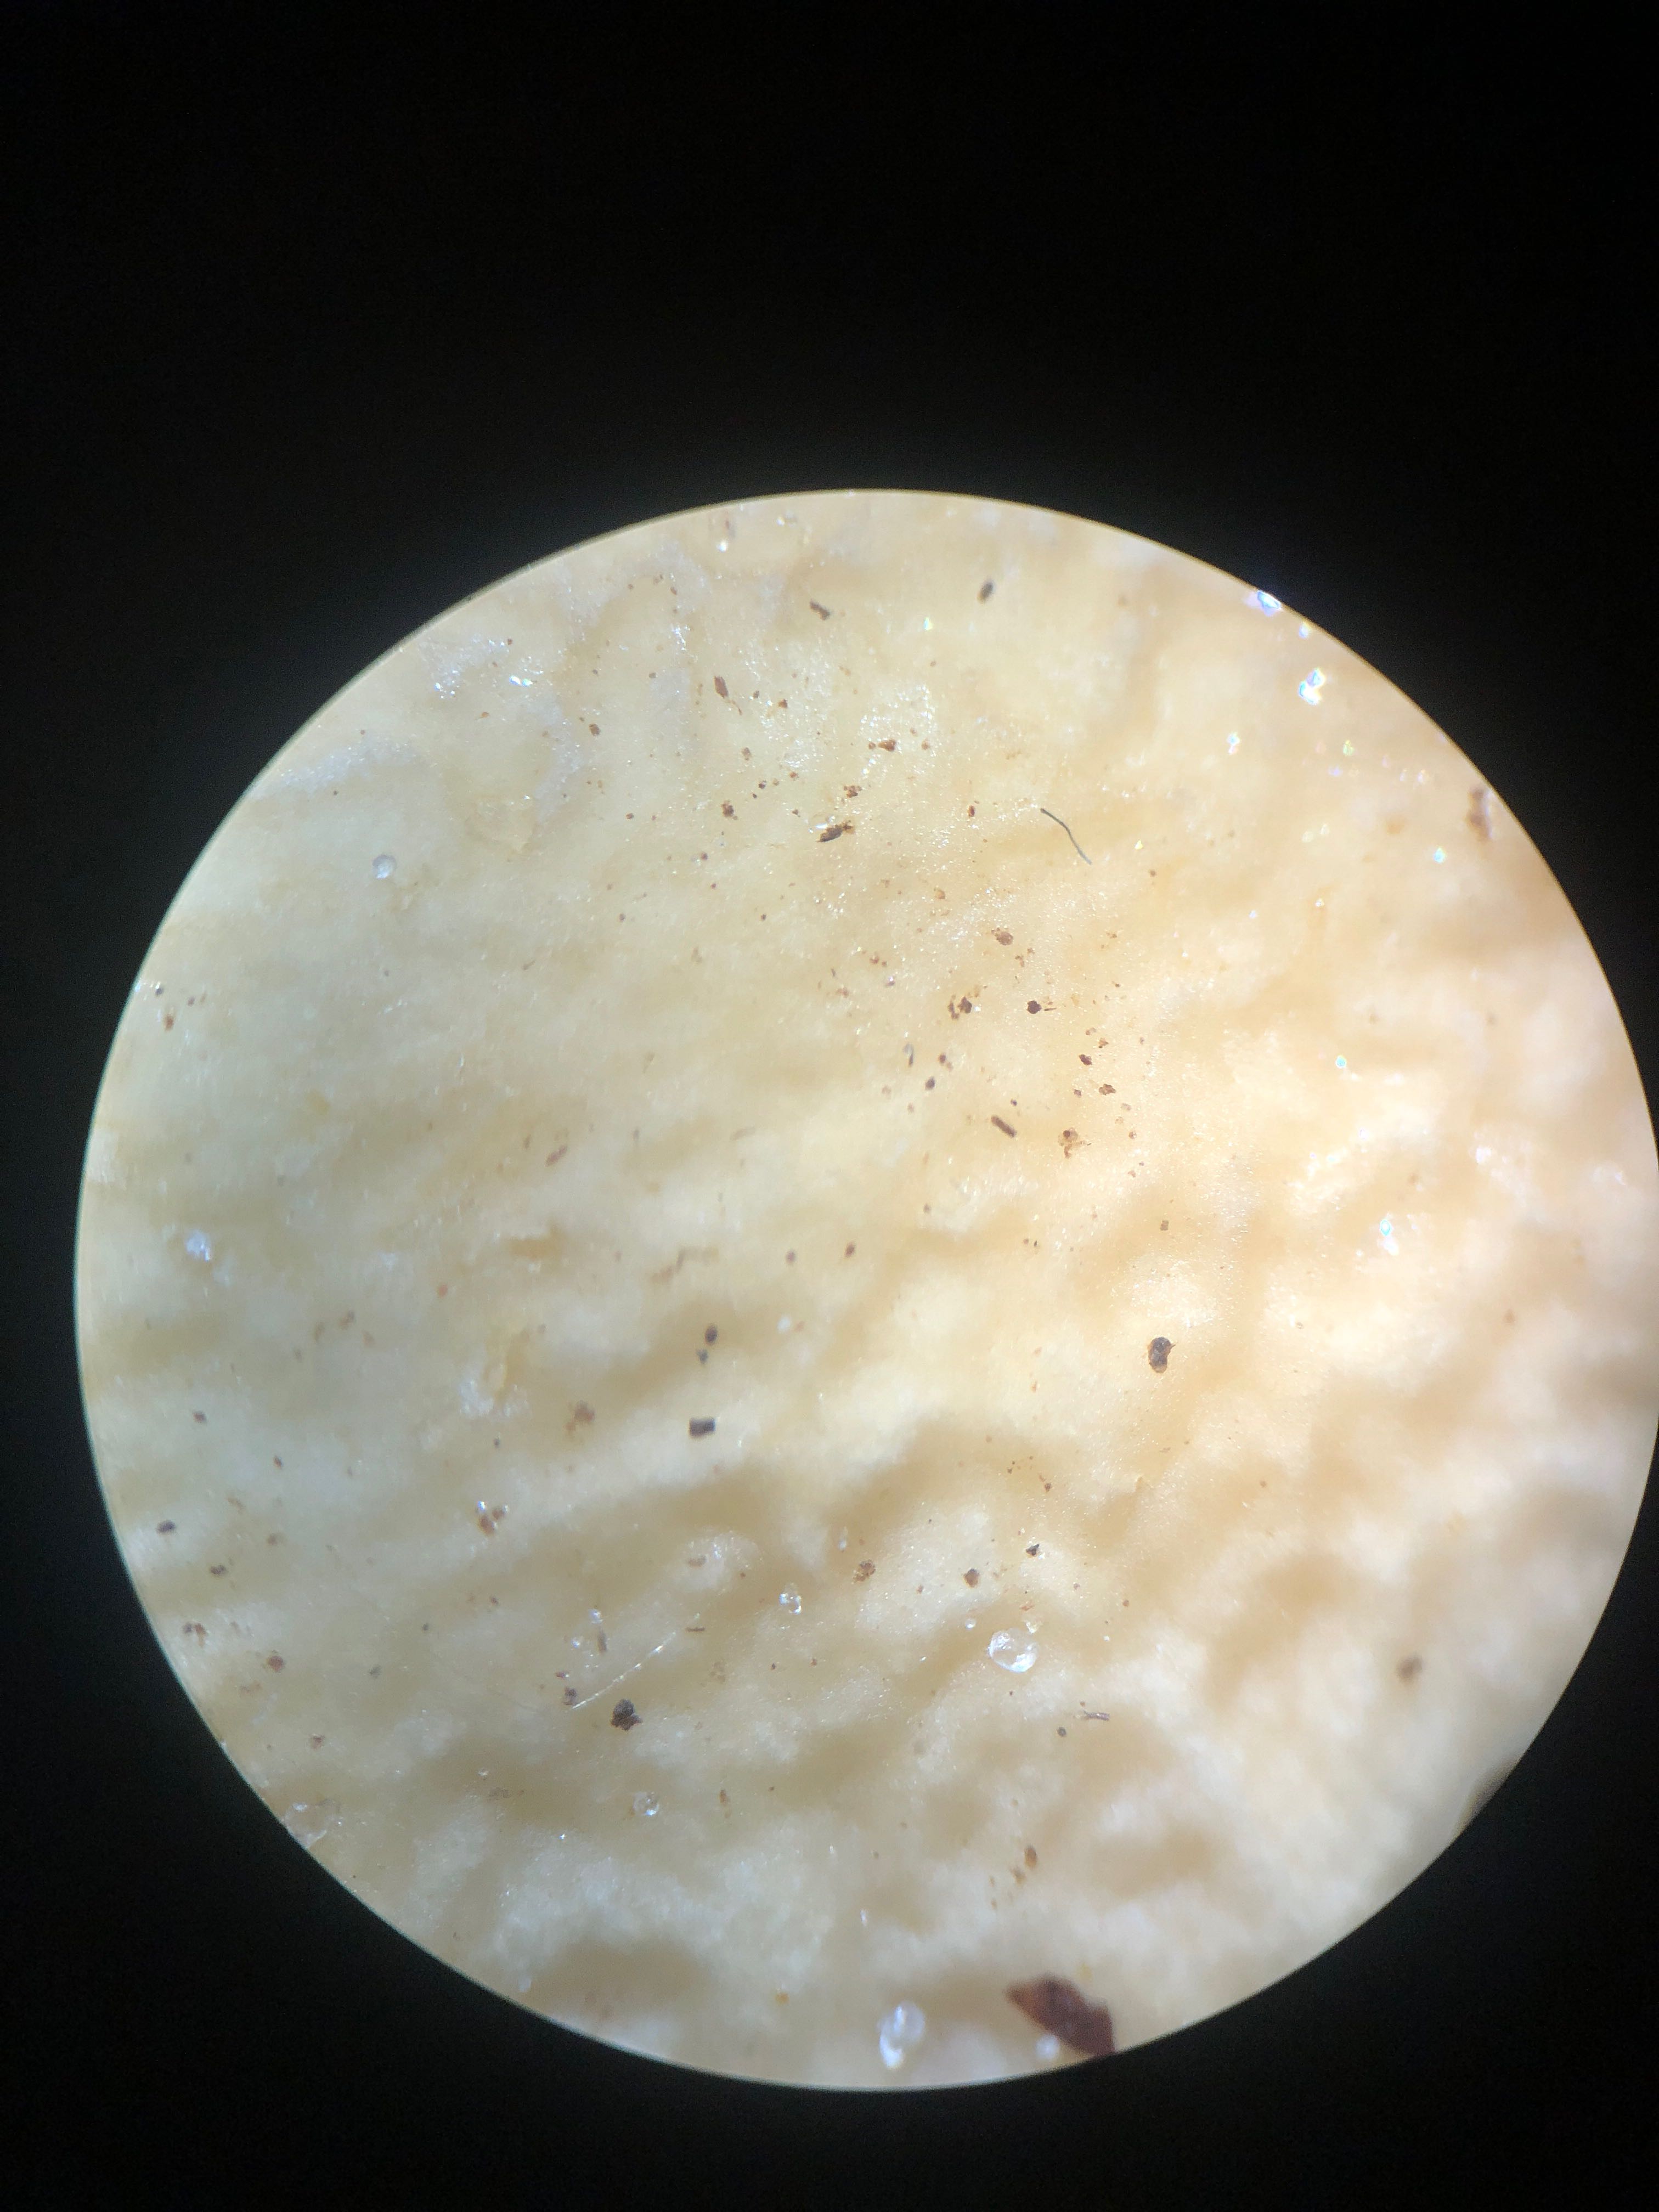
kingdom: Fungi
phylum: Basidiomycota
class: Agaricomycetes
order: Agaricales
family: Strophariaceae
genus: Agrocybe
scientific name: Agrocybe praecox
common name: tidlig agerhat
